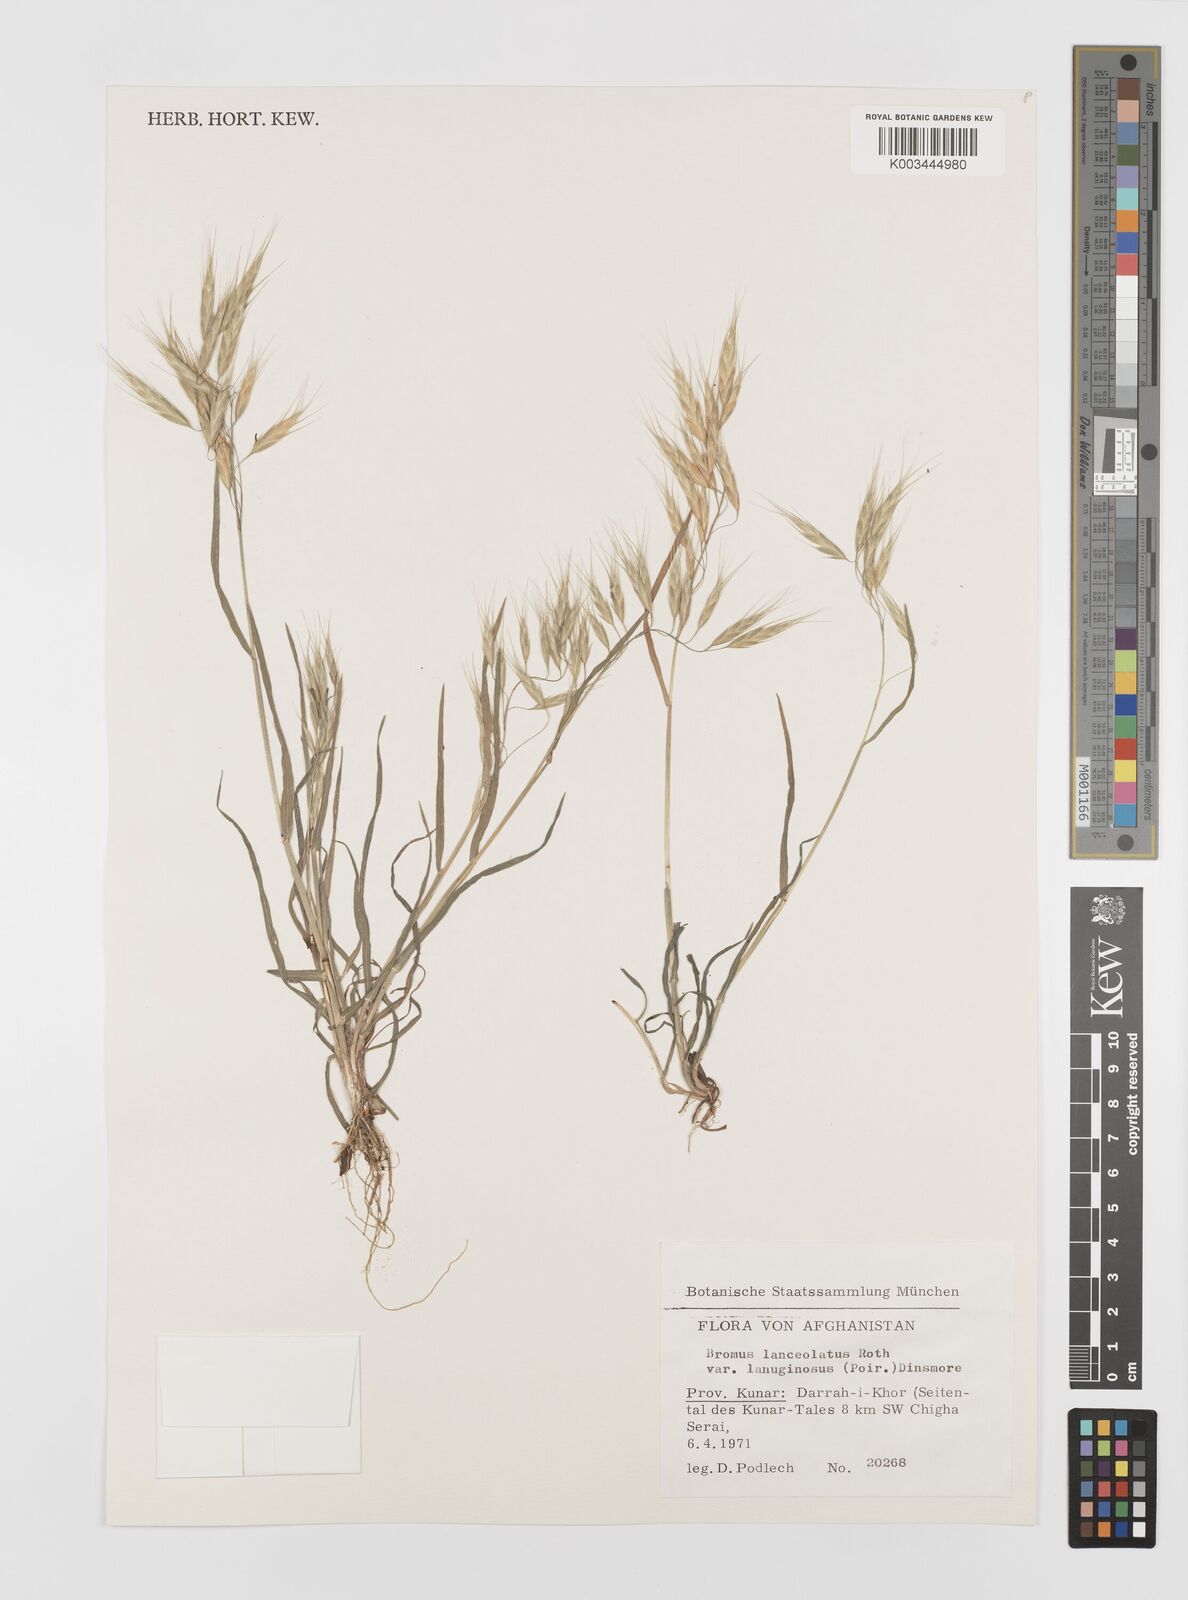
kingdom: Plantae
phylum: Tracheophyta
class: Liliopsida
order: Poales
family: Poaceae
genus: Bromus
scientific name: Bromus lanceolatus
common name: Mediterranean brome
